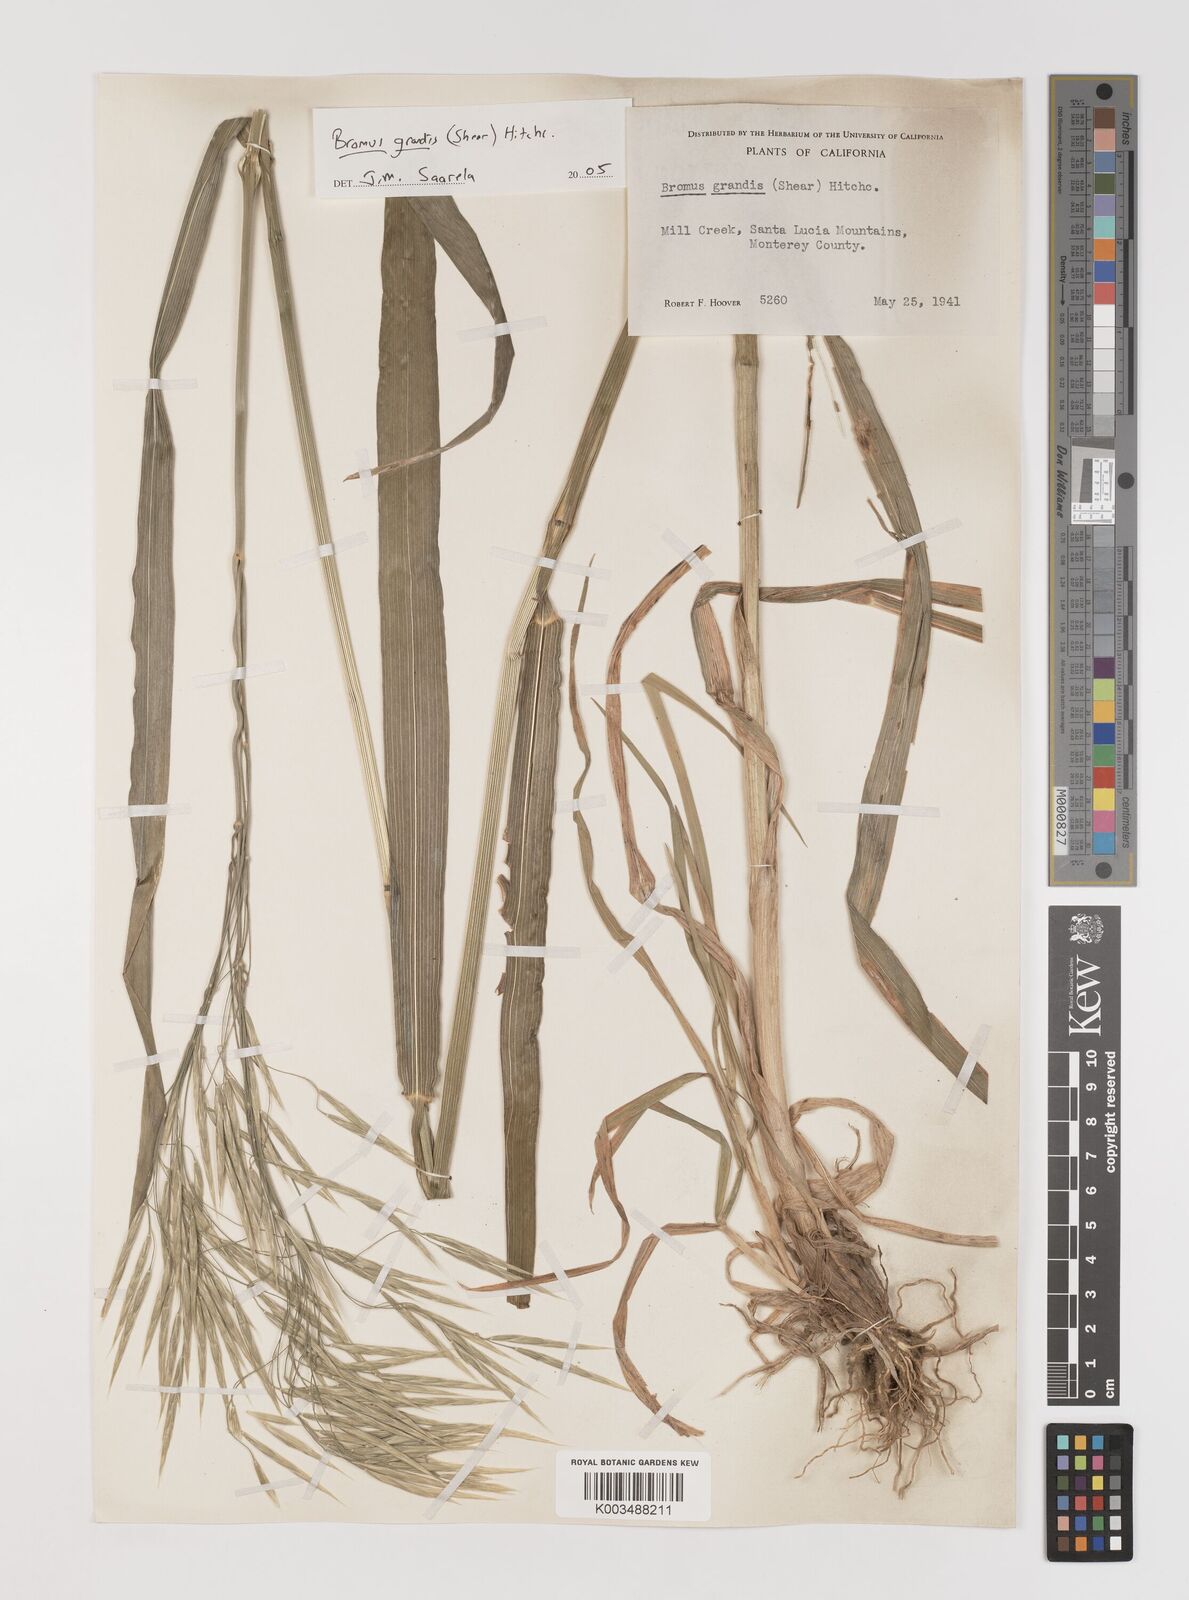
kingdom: Plantae
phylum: Tracheophyta
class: Liliopsida
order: Poales
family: Poaceae
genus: Bromus
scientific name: Bromus grandis
